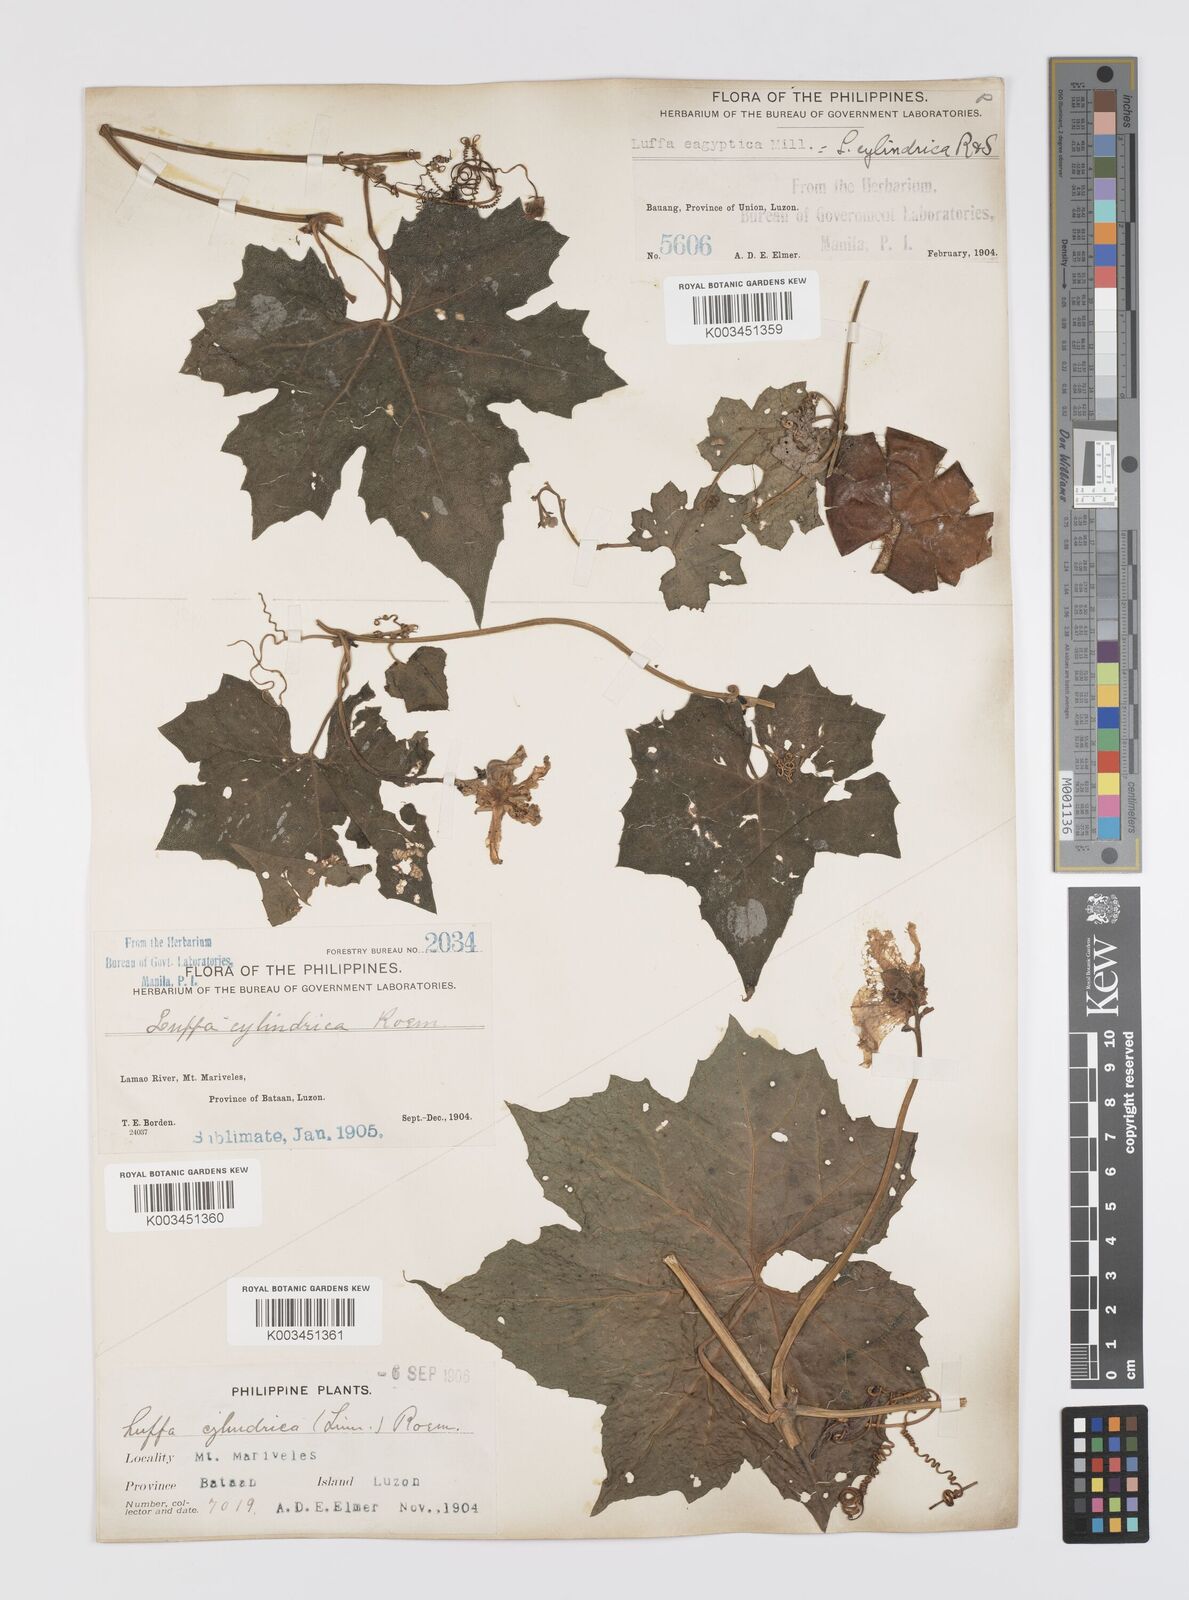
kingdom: Plantae
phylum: Tracheophyta
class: Magnoliopsida
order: Cucurbitales
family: Cucurbitaceae
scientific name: Cucurbitaceae
